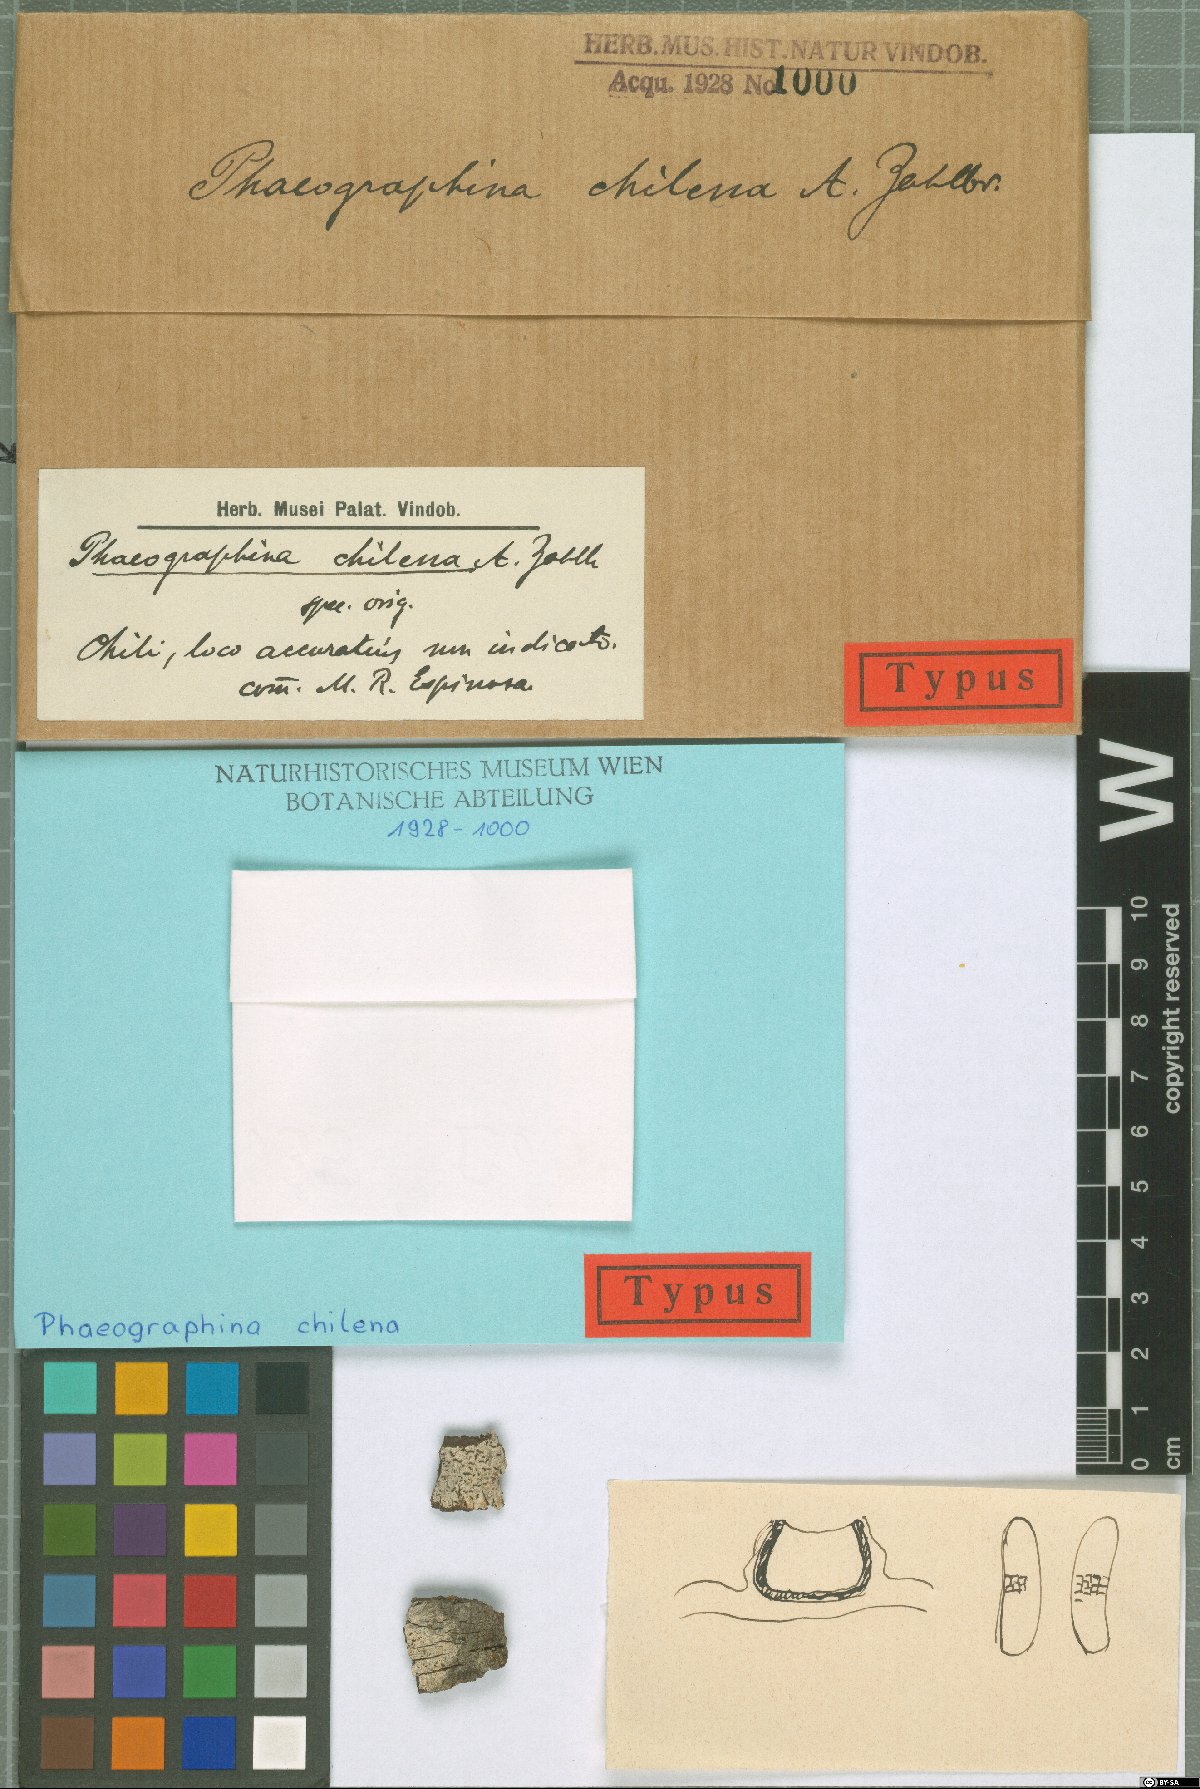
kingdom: Fungi
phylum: Ascomycota
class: Lecanoromycetes
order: Ostropales
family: Graphidaceae
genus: Phaeographina
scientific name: Phaeographina
